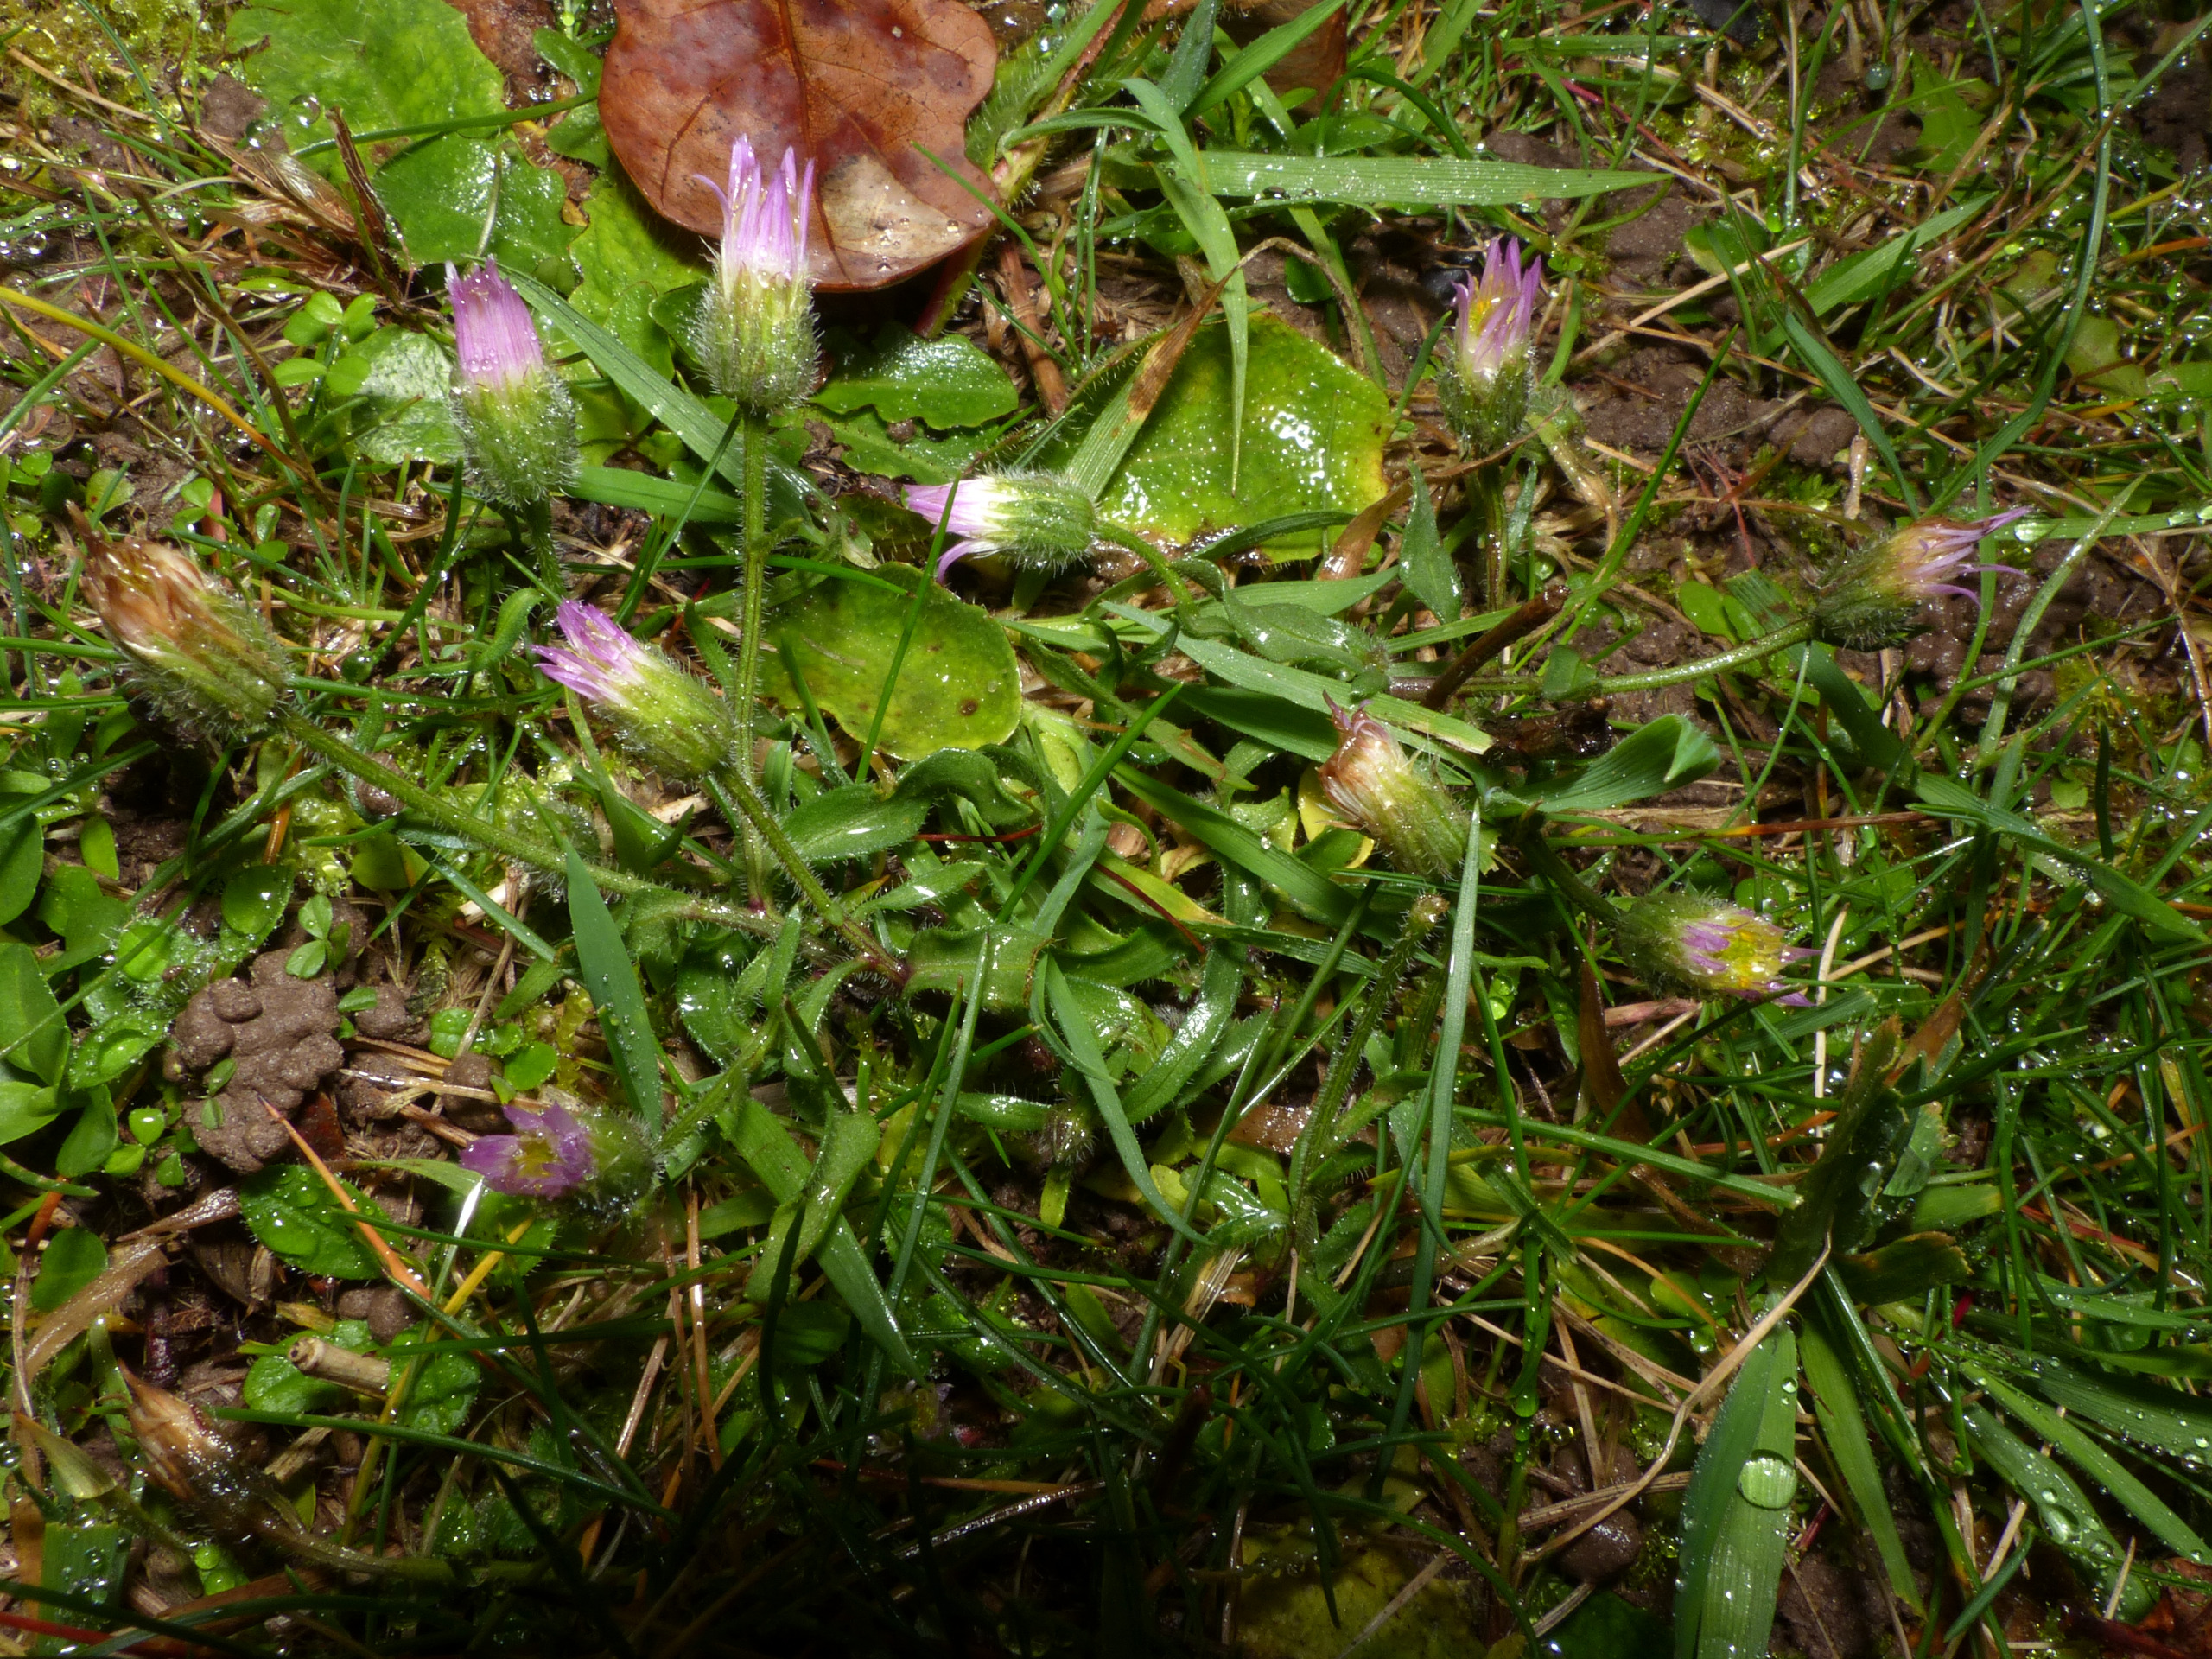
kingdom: Plantae
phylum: Tracheophyta
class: Magnoliopsida
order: Asterales
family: Asteraceae
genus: Erigeron
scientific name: Erigeron muralis
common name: Vreden bakkestjerne
